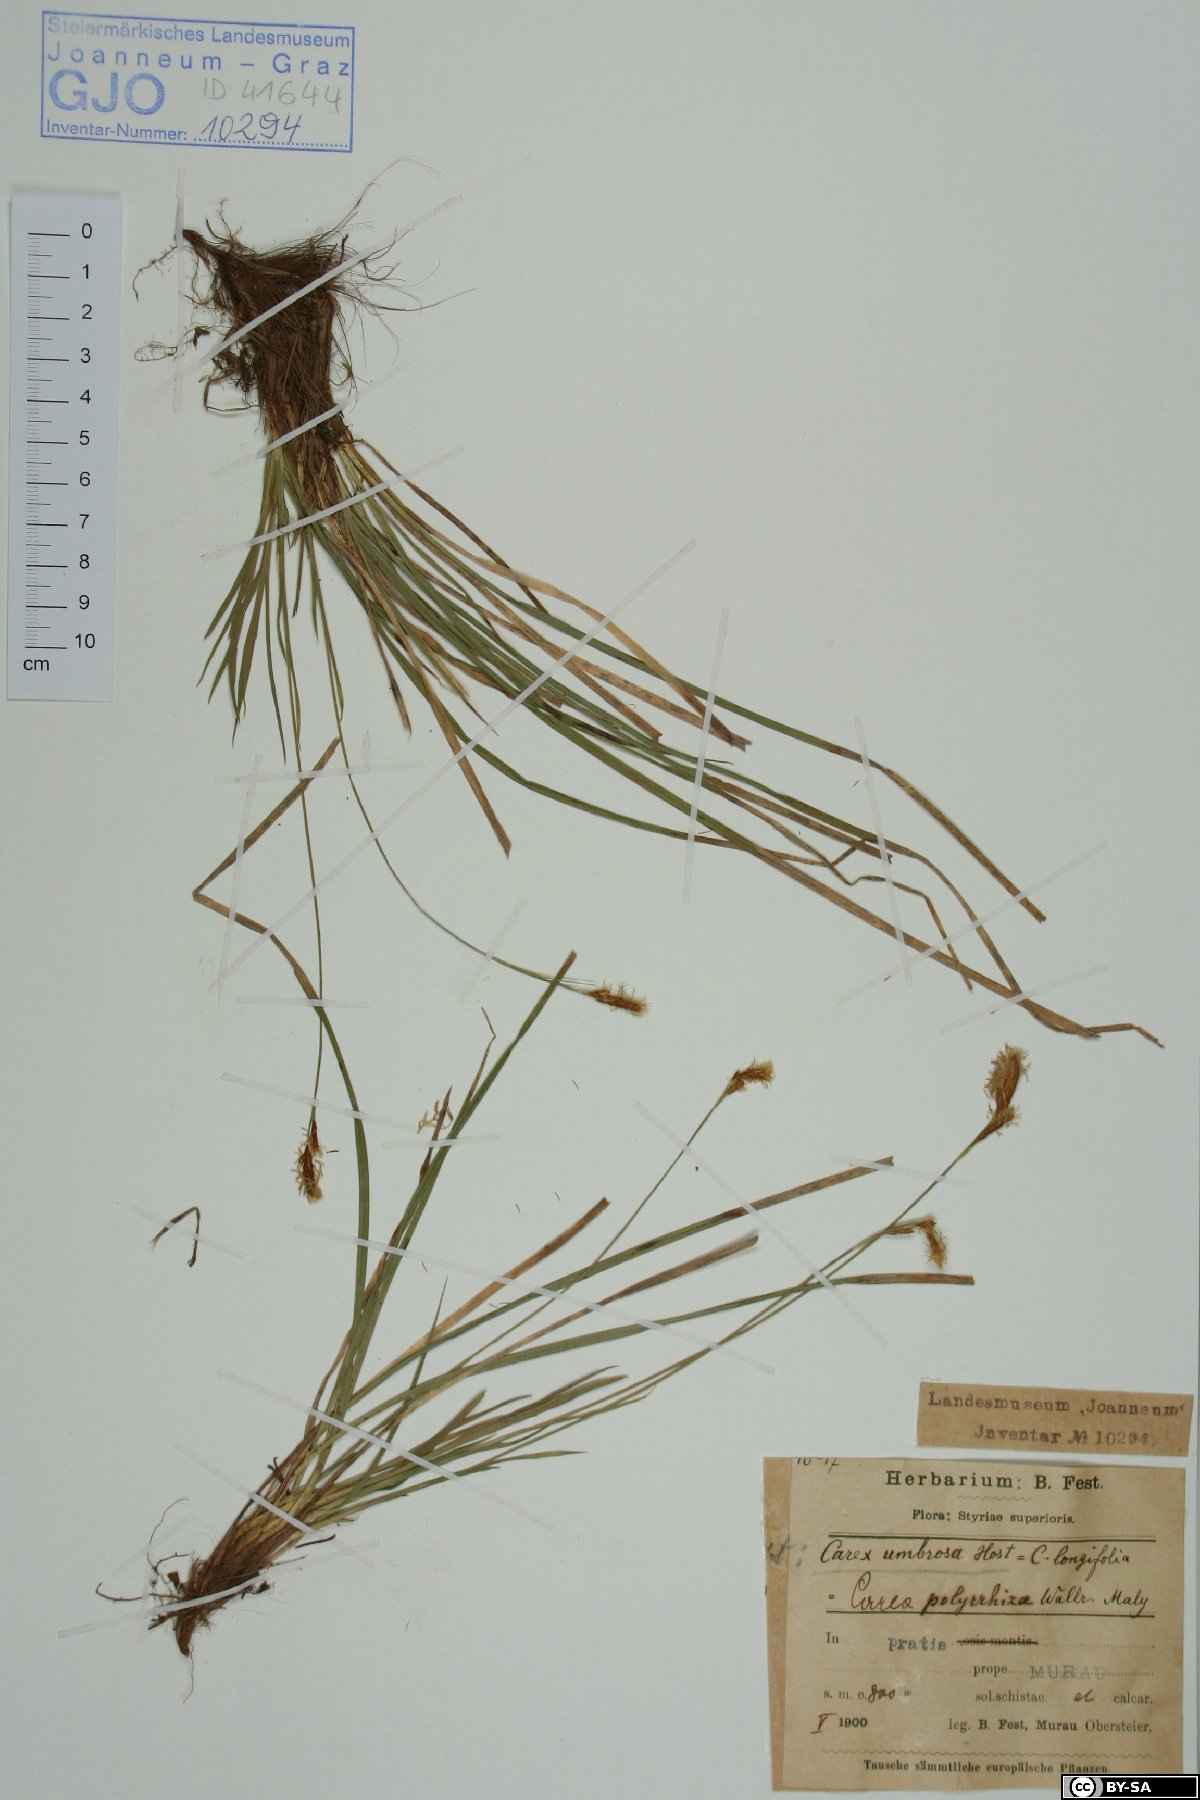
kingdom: Plantae
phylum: Tracheophyta
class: Liliopsida
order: Poales
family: Cyperaceae
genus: Carex
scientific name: Carex umbrosa
